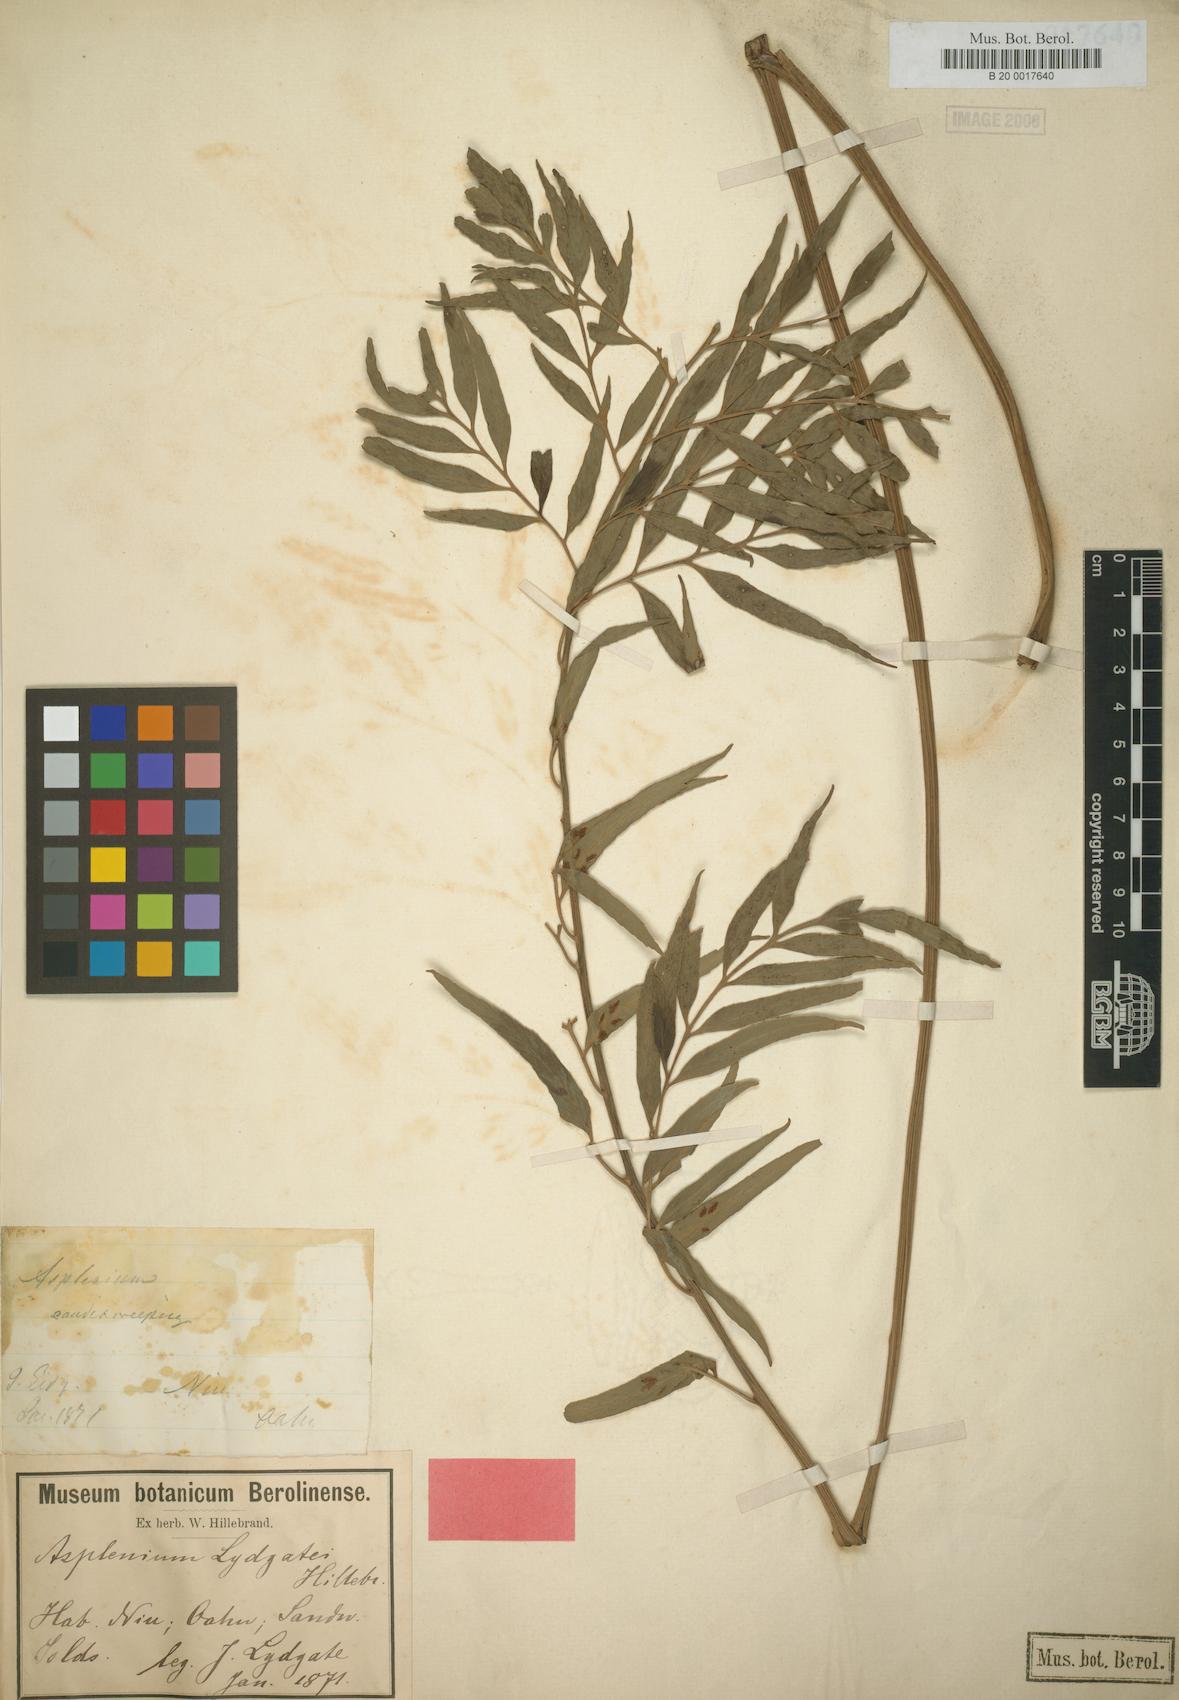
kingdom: Plantae
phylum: Tracheophyta
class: Polypodiopsida
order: Polypodiales
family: Aspleniaceae
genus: Asplenium
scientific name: Asplenium lydgatei
